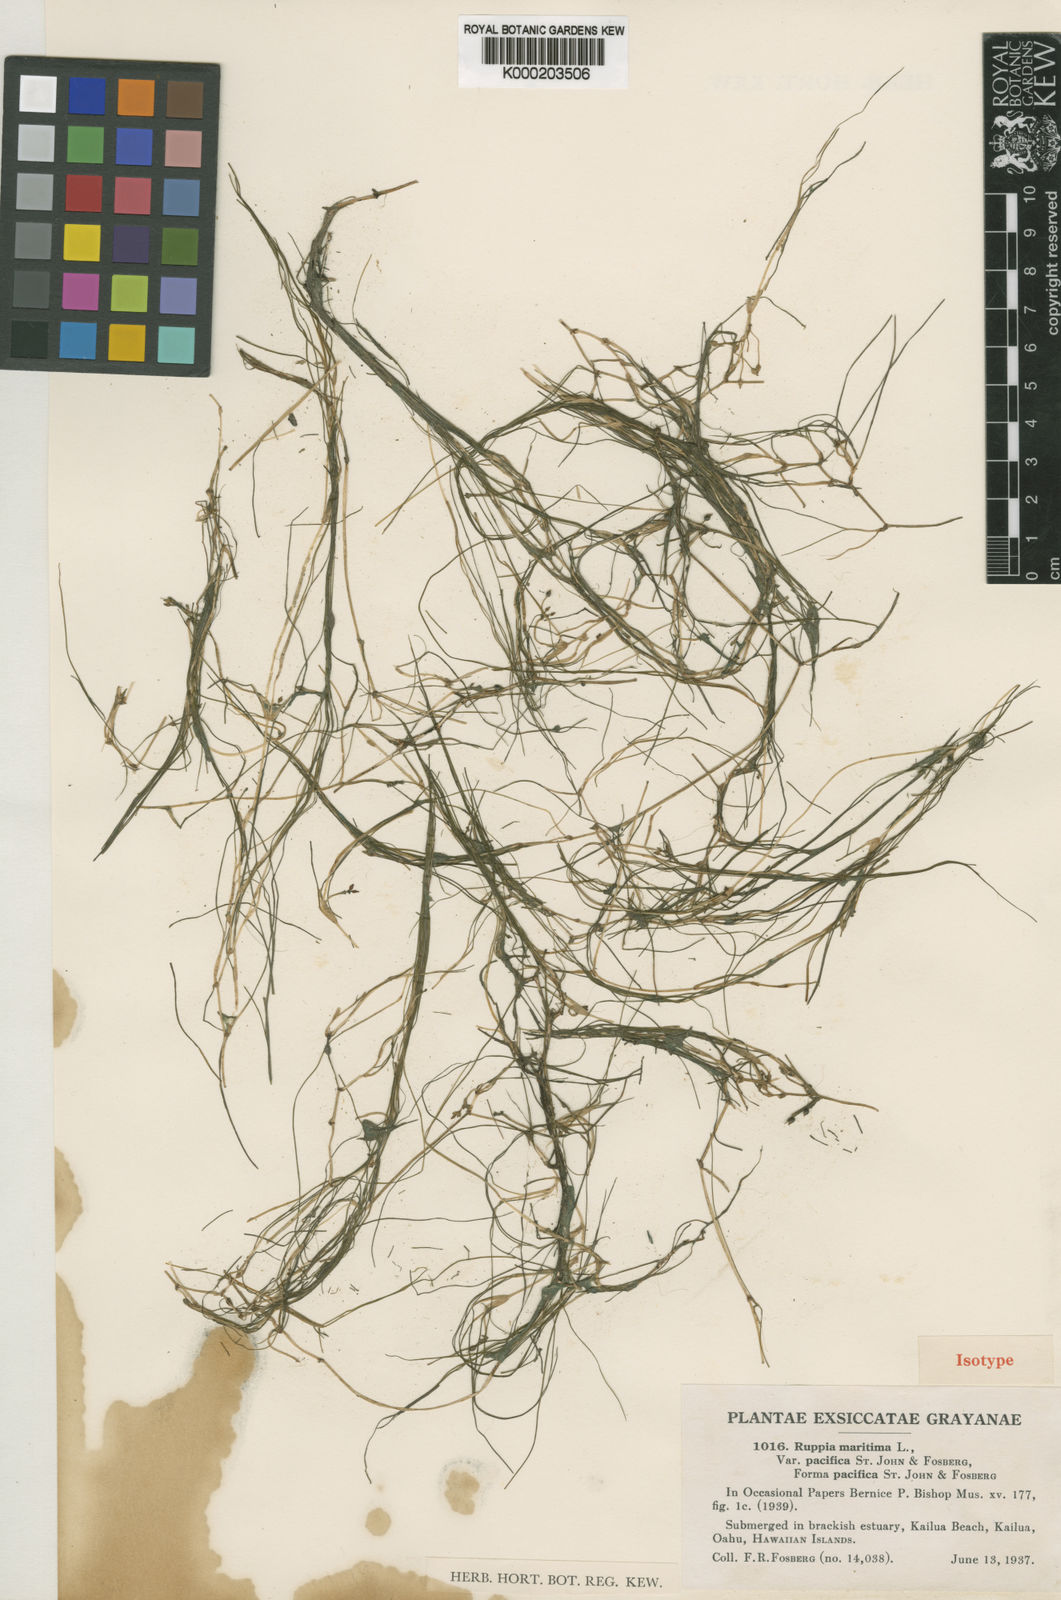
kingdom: Plantae
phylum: Tracheophyta
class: Liliopsida
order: Alismatales
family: Ruppiaceae
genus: Ruppia
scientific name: Ruppia maritima
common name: Beaked tasselweed
